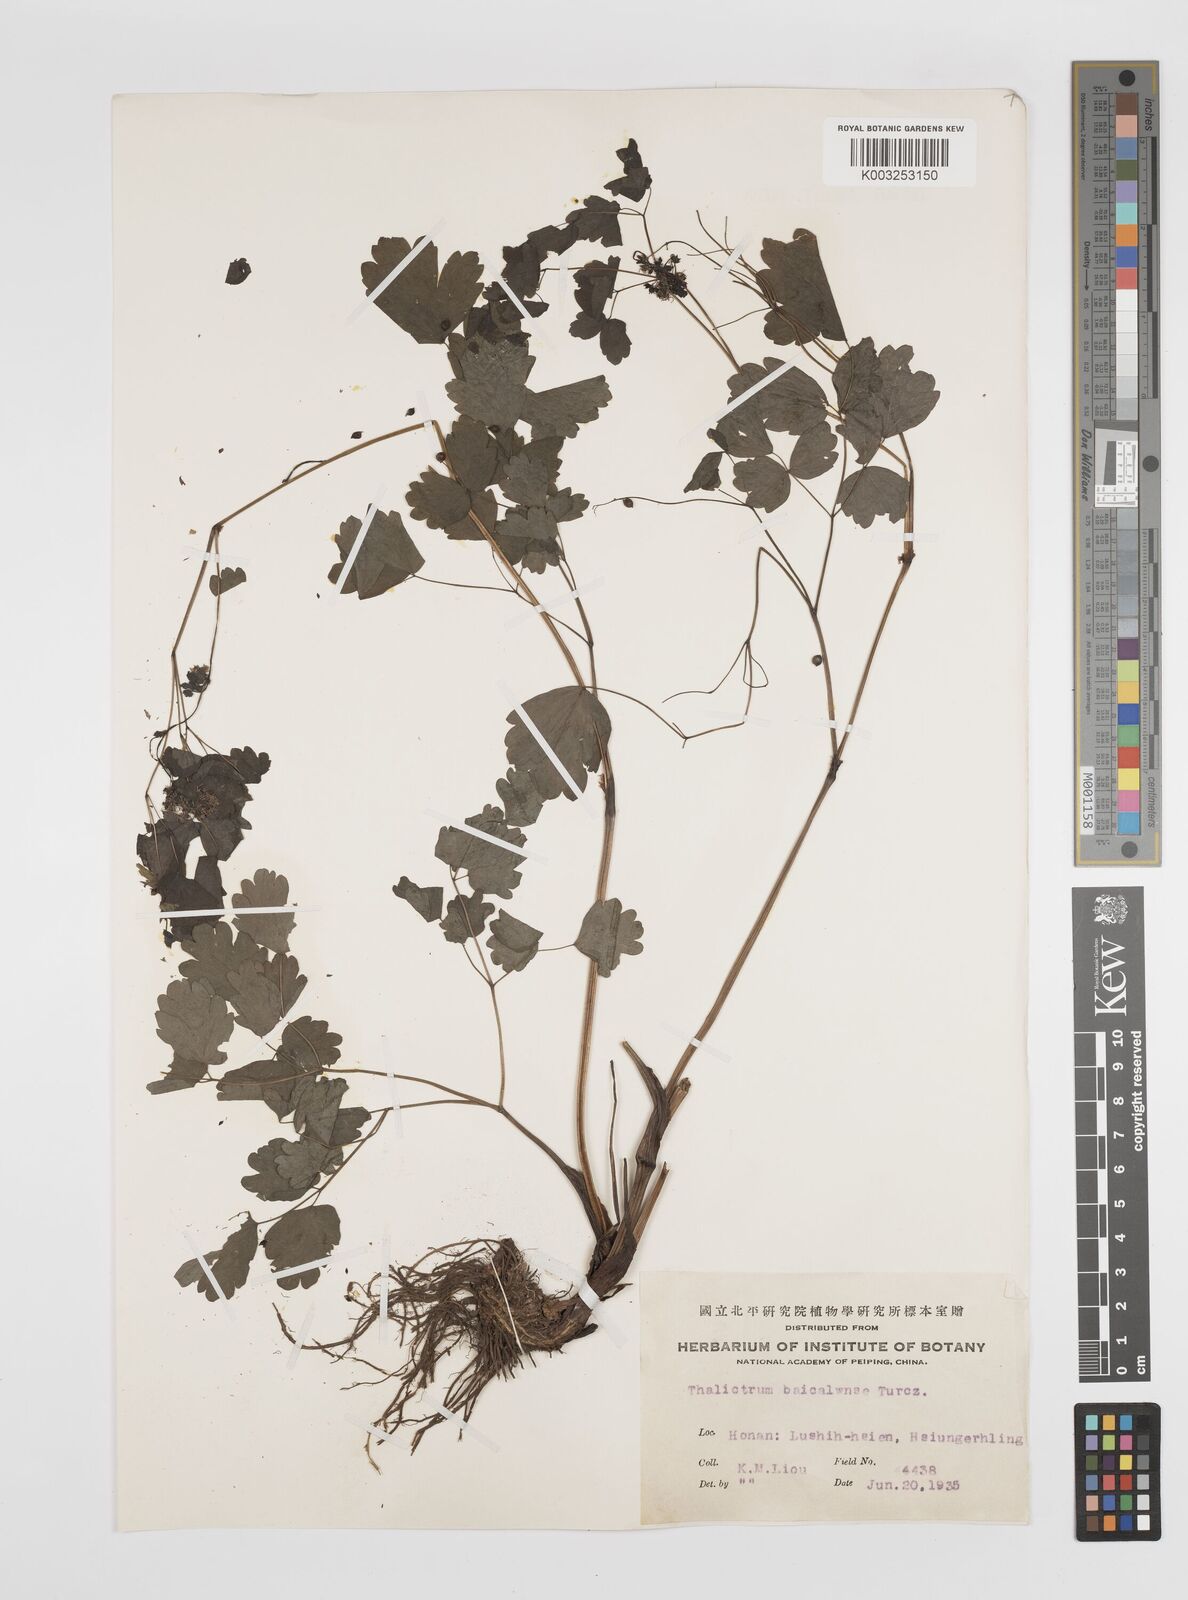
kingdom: Plantae
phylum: Tracheophyta
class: Magnoliopsida
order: Ranunculales
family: Ranunculaceae
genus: Thalictrum
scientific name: Thalictrum baicalense
